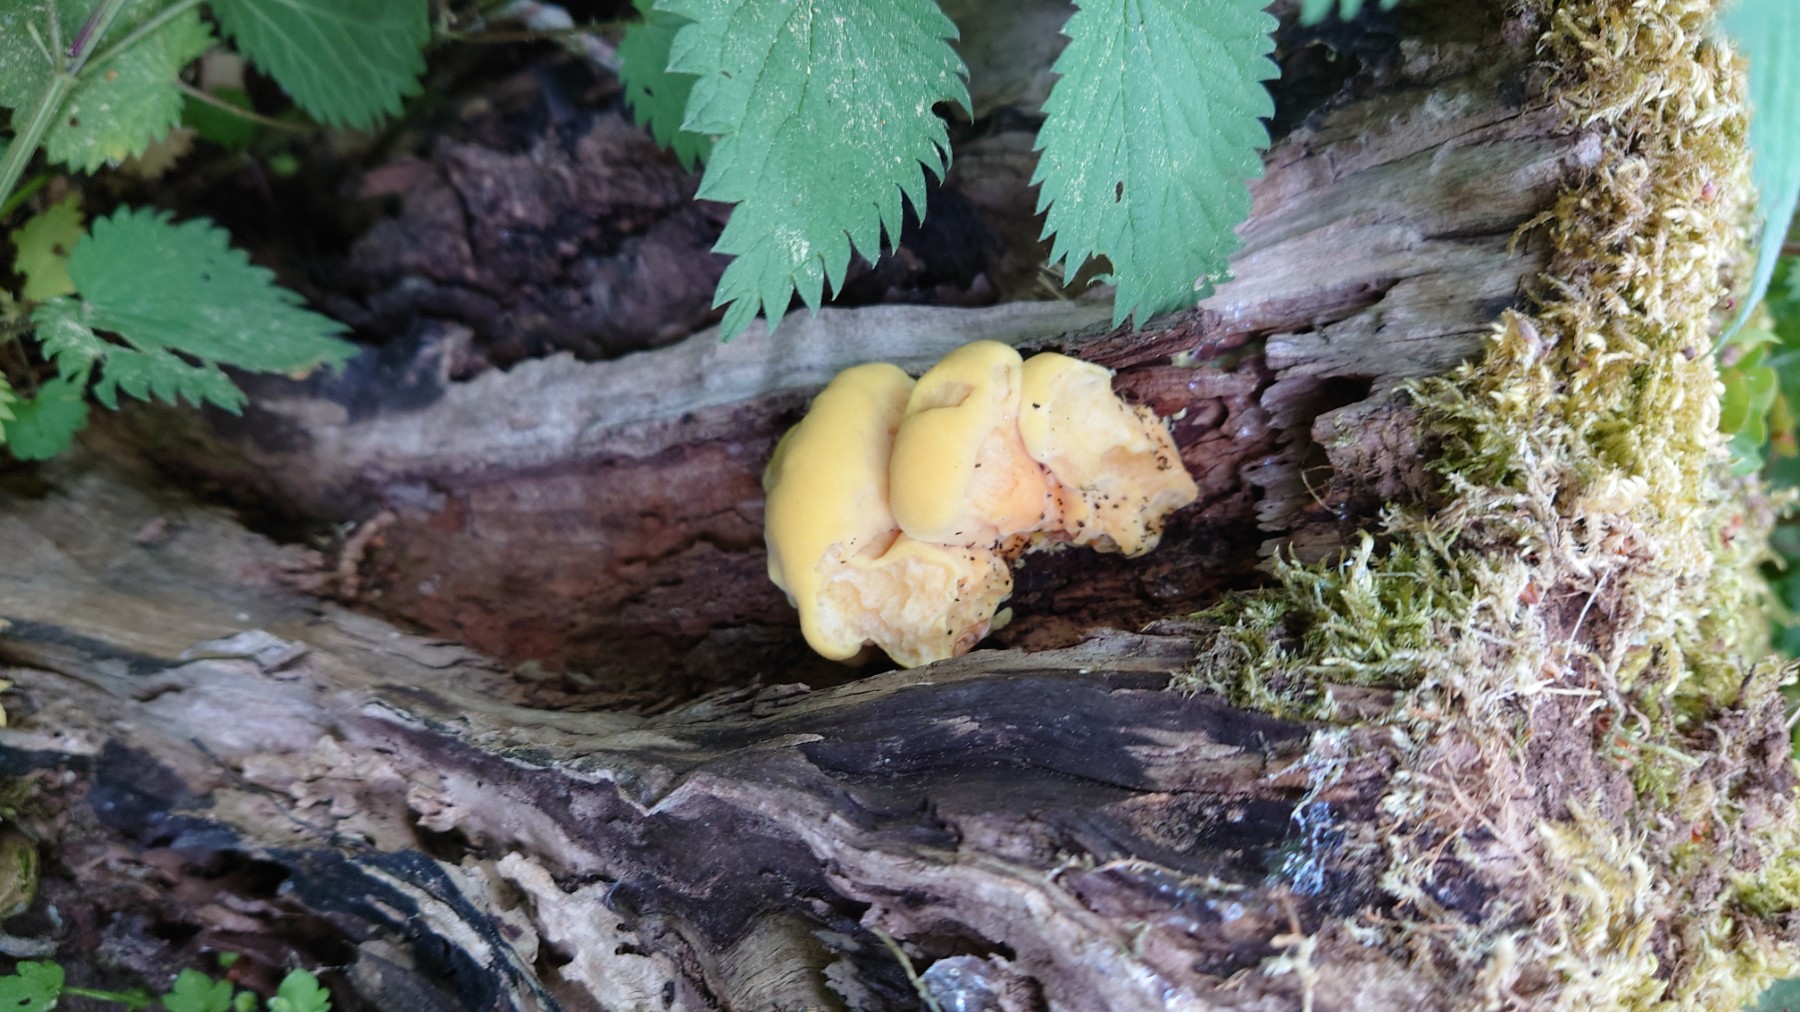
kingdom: Fungi
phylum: Basidiomycota
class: Agaricomycetes
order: Polyporales
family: Laetiporaceae
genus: Laetiporus
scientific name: Laetiporus sulphureus
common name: svovlporesvamp
